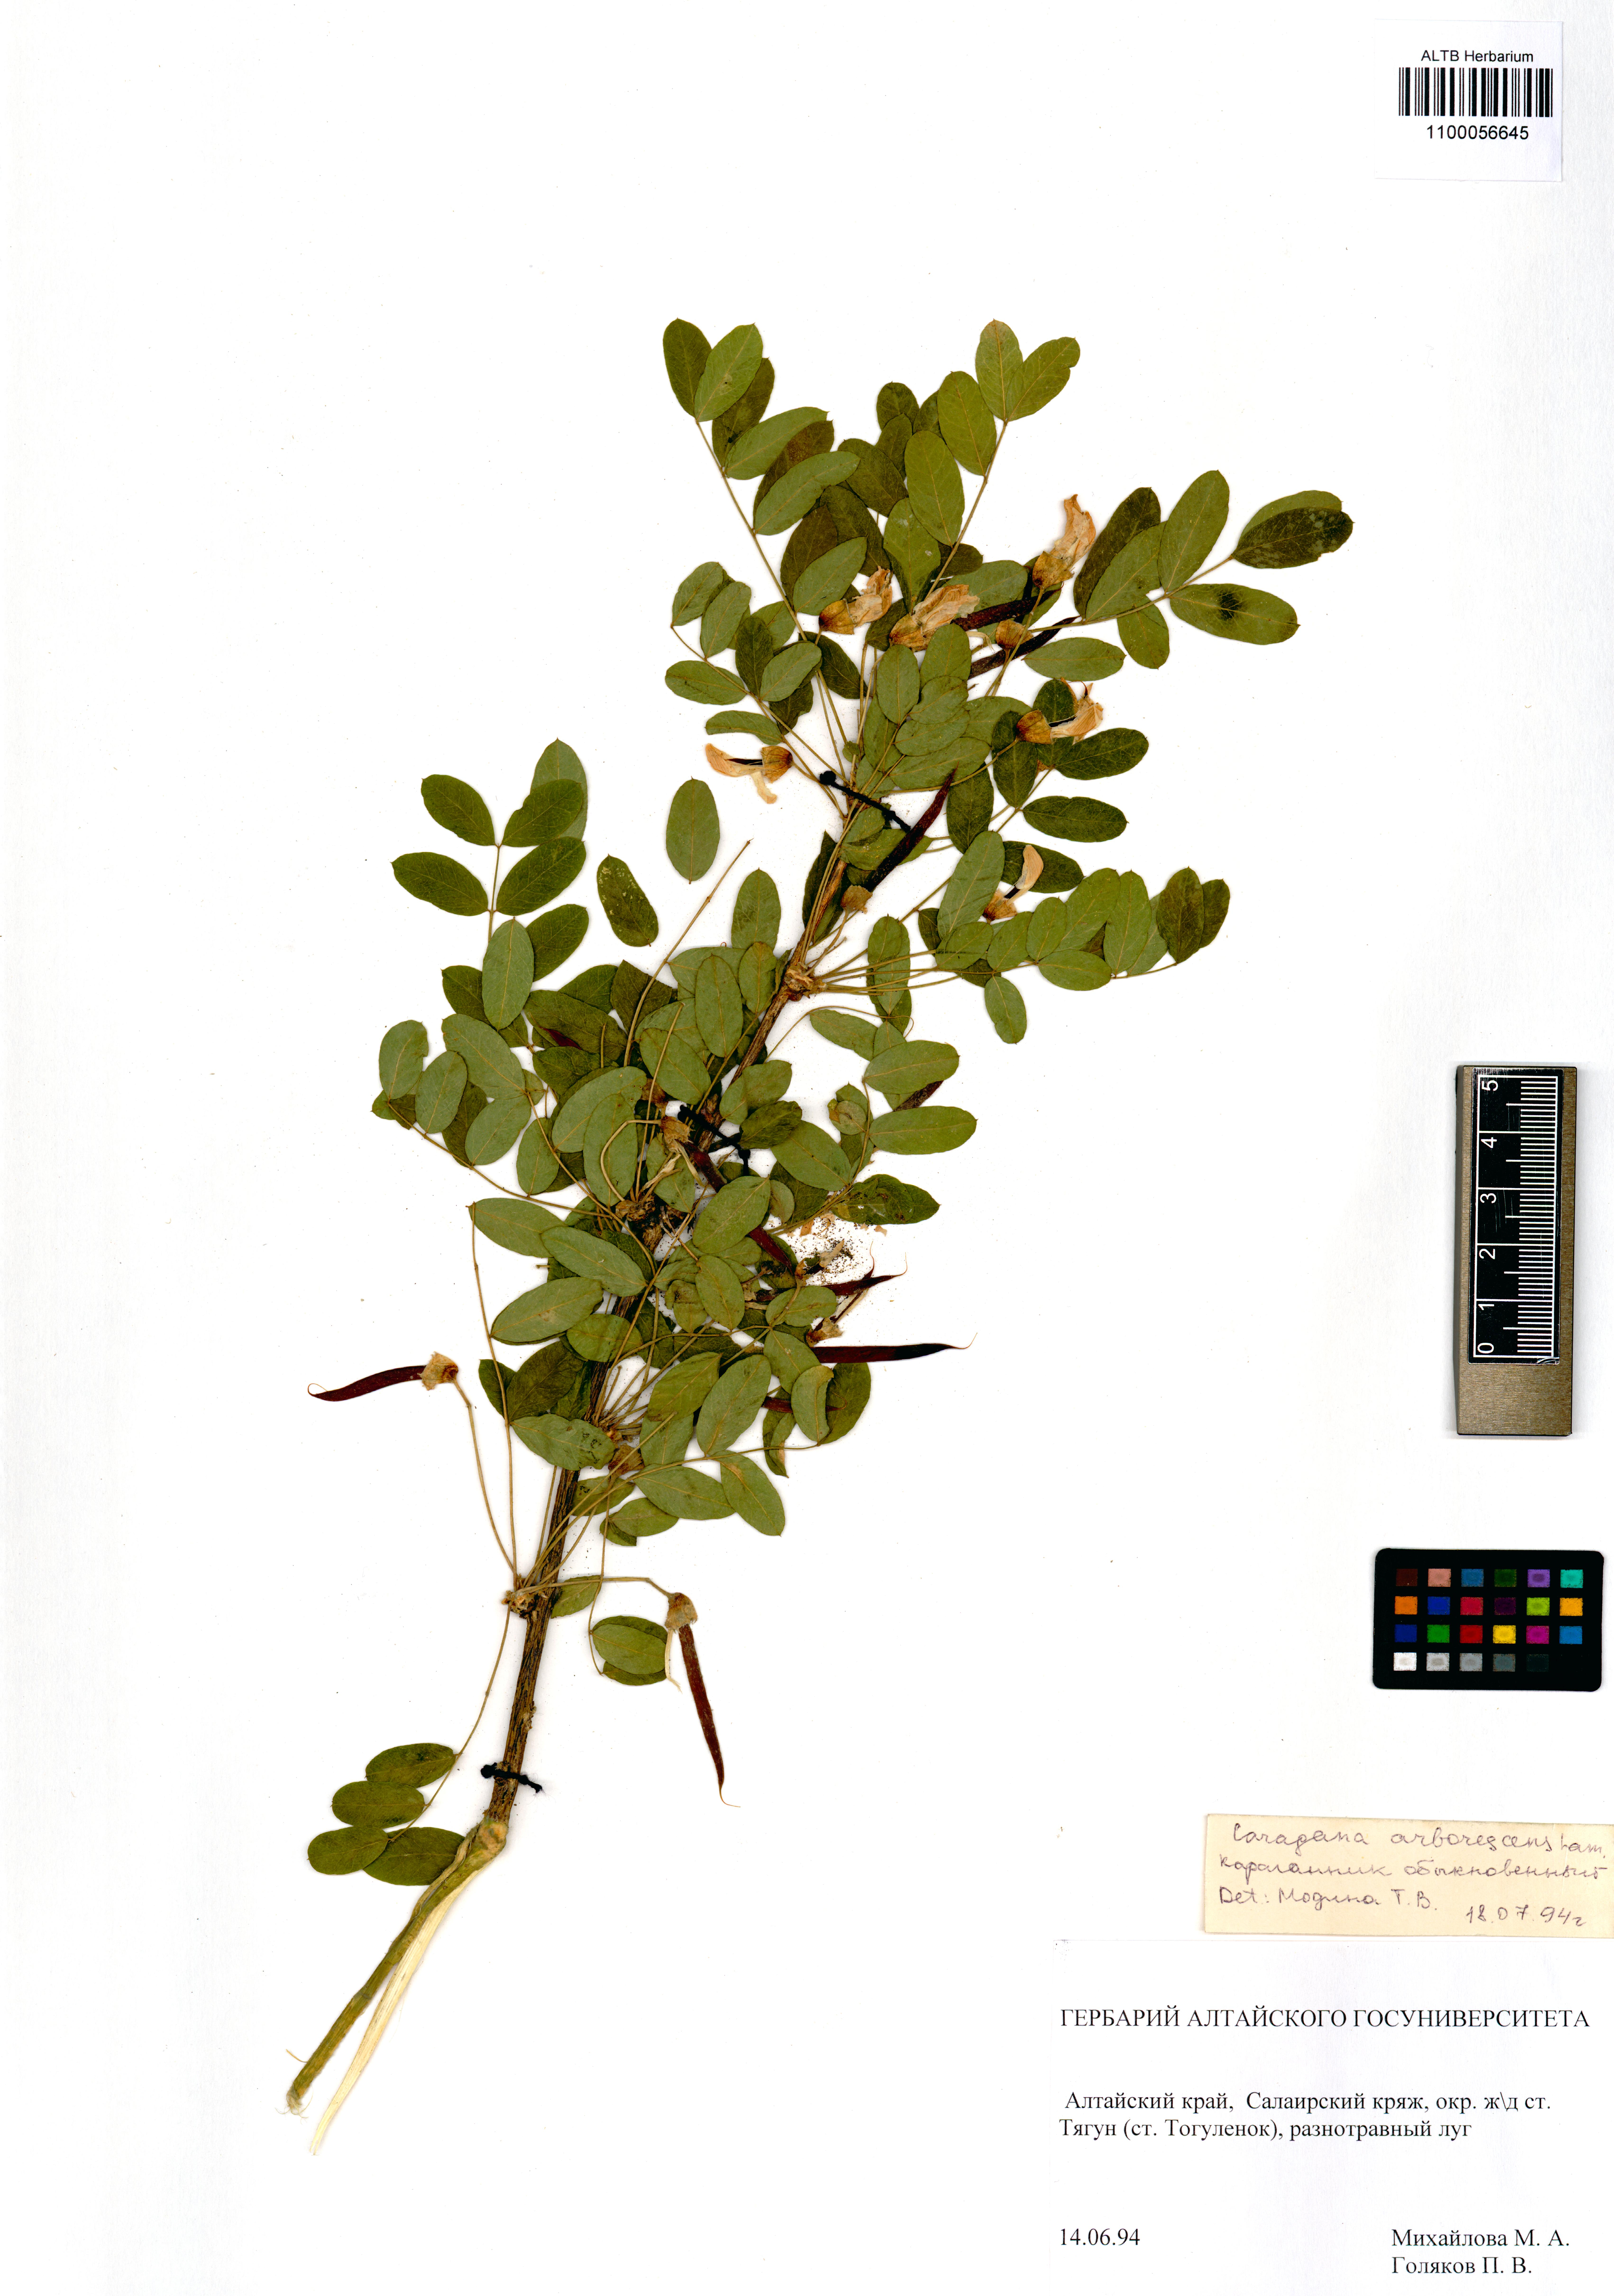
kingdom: Plantae
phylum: Tracheophyta
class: Magnoliopsida
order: Fabales
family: Fabaceae
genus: Caragana
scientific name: Caragana arborescens
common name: Siberian peashrub
